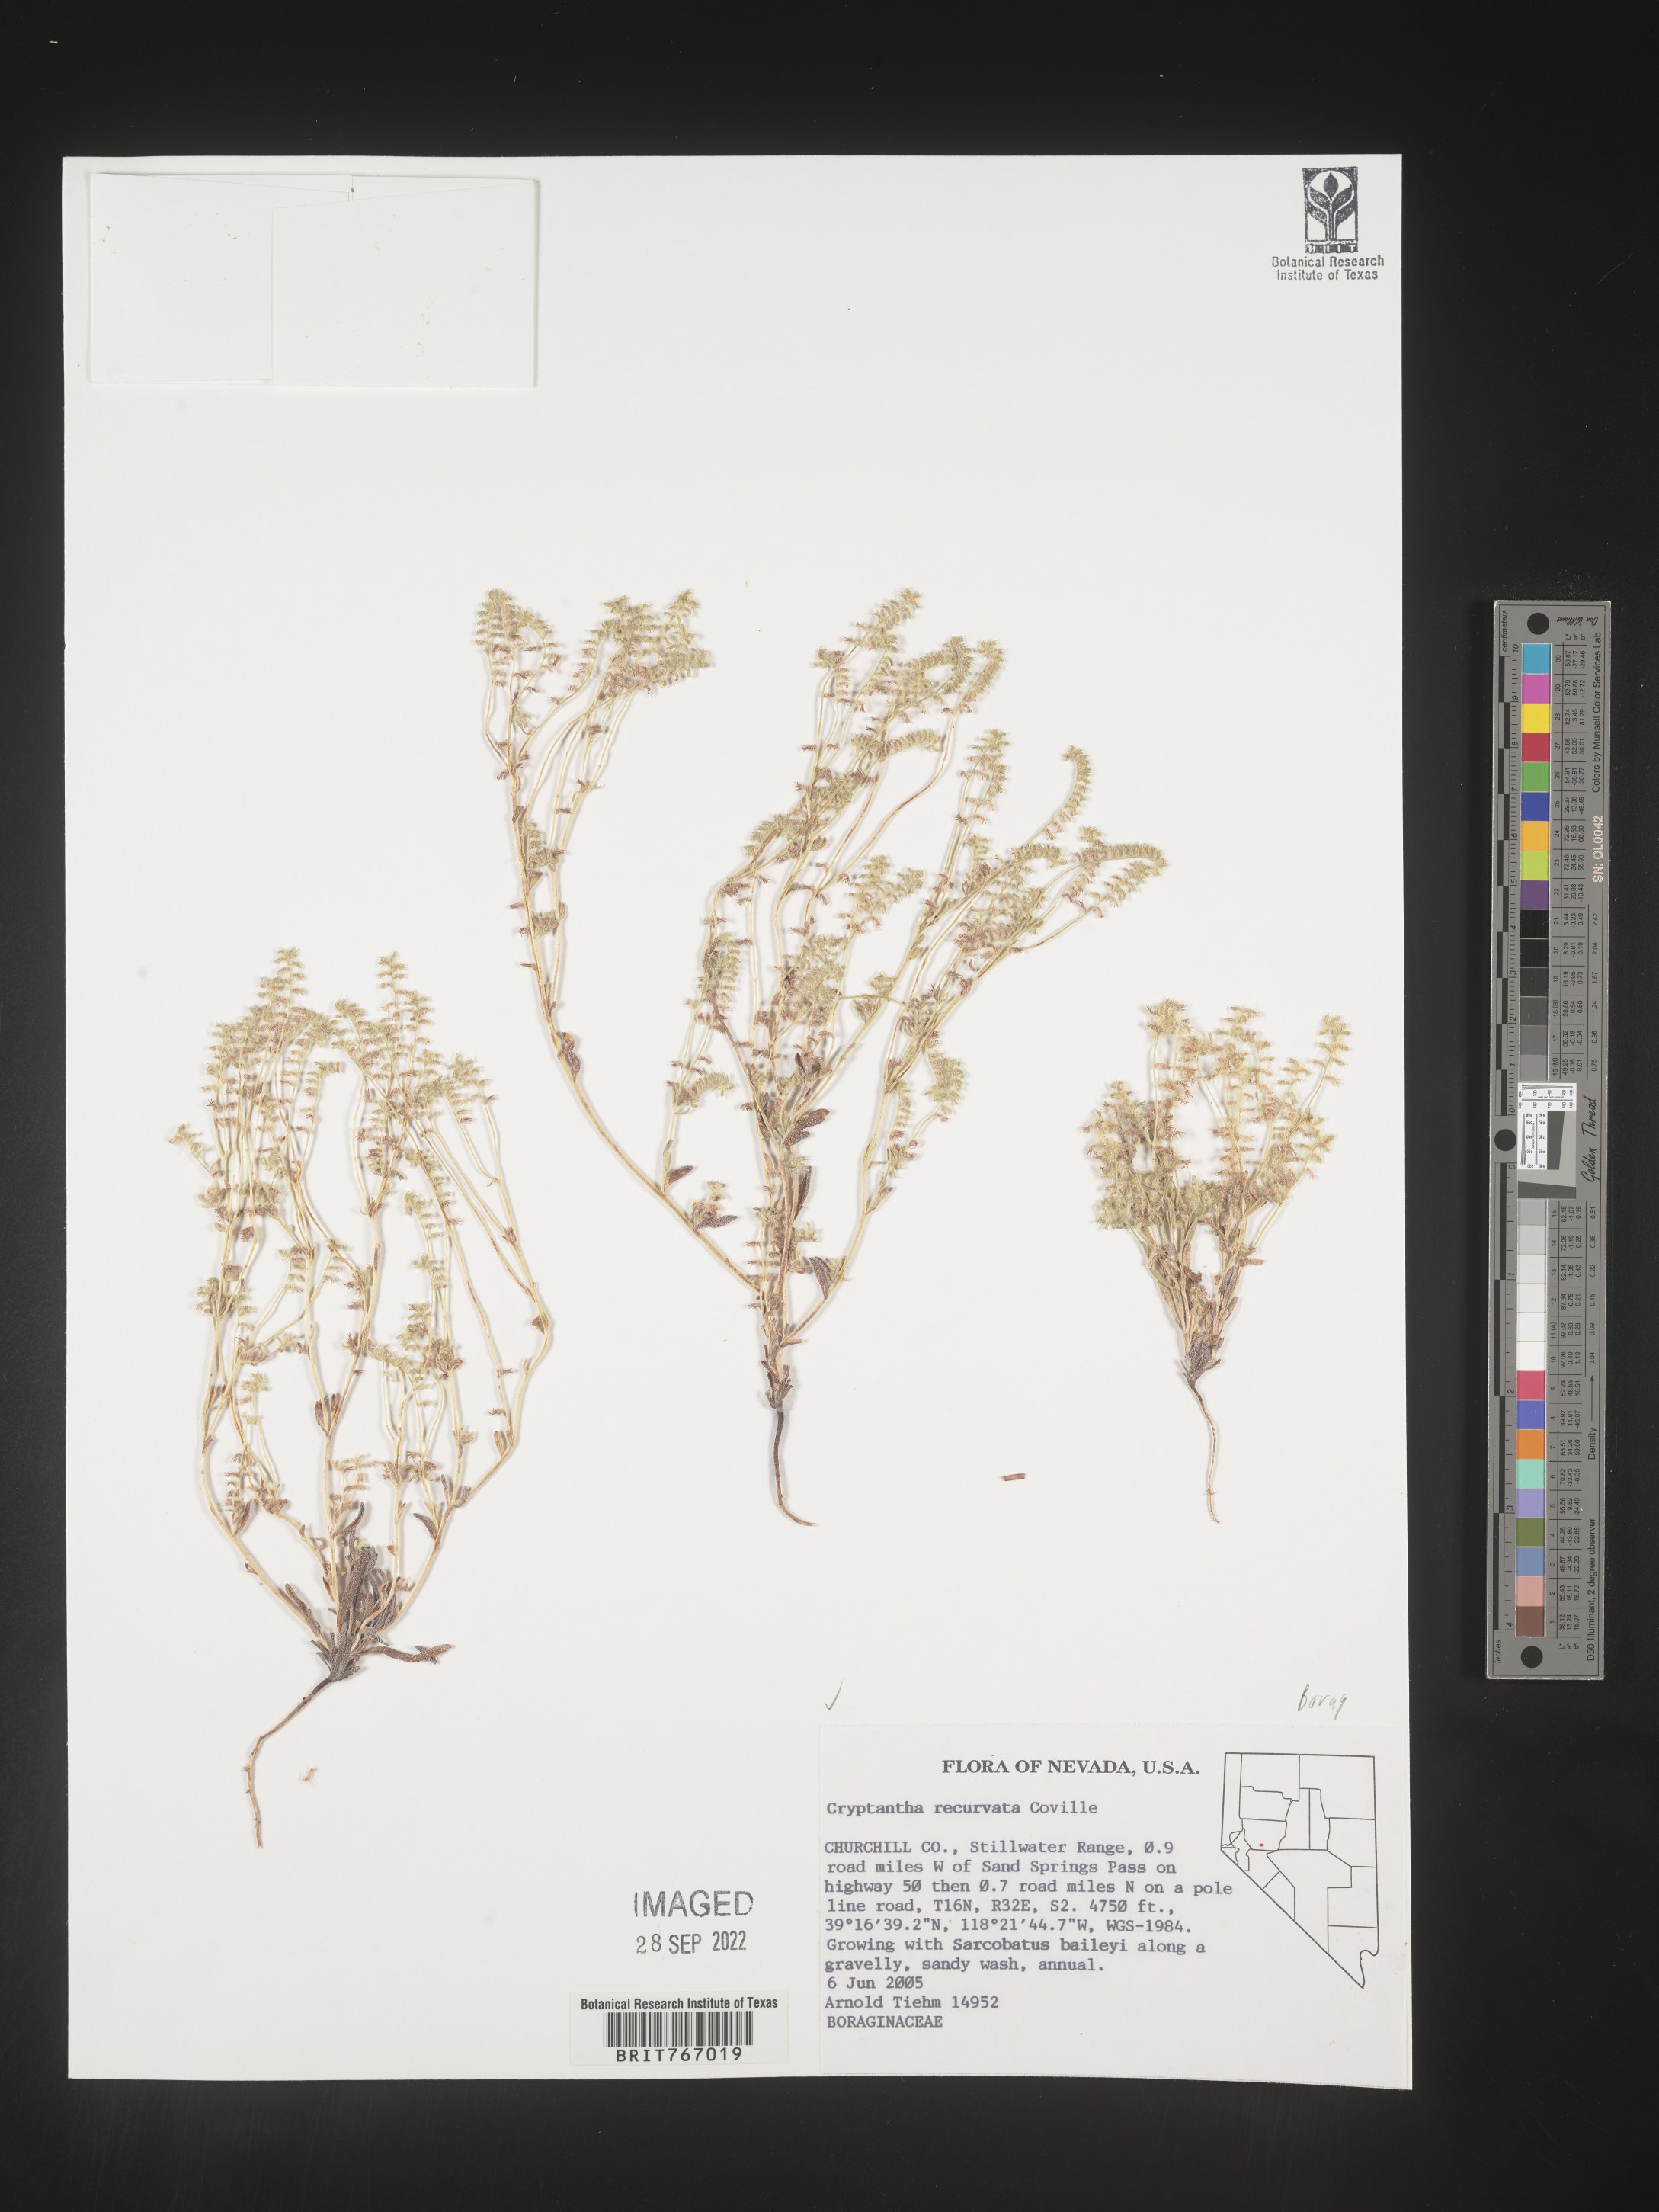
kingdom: Plantae
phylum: Tracheophyta
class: Magnoliopsida
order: Boraginales
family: Boraginaceae
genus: Cryptantha
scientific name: Cryptantha
